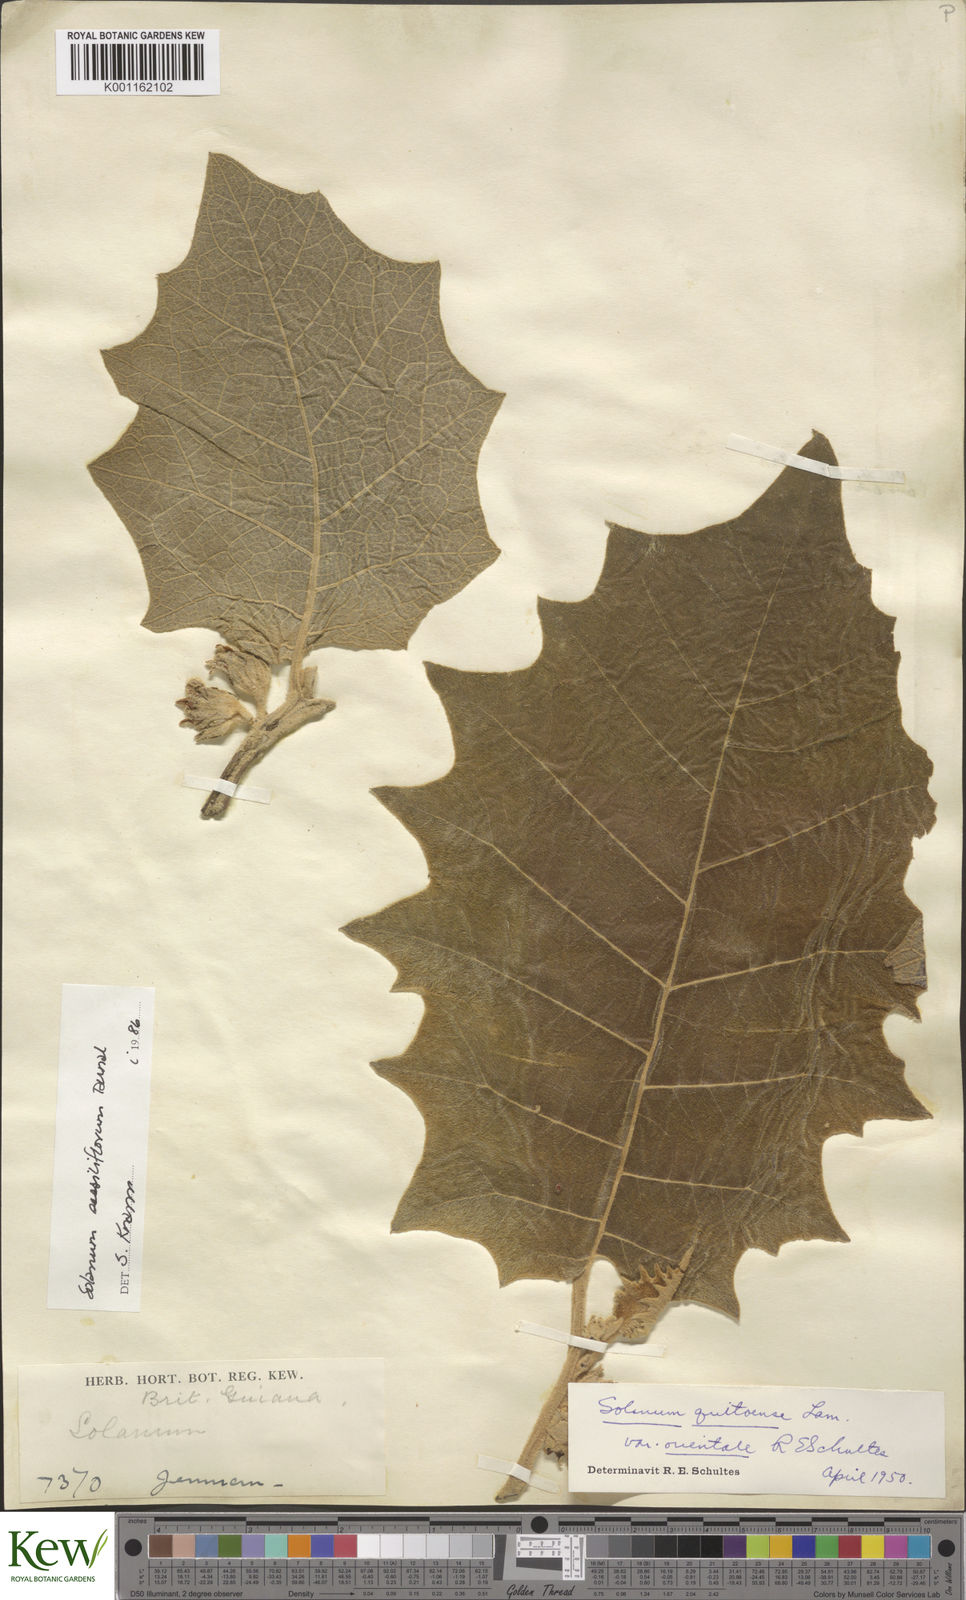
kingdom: Plantae
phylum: Tracheophyta
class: Magnoliopsida
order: Solanales
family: Solanaceae
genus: Solanum
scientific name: Solanum sessiliflorum
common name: Orinoco-apple
